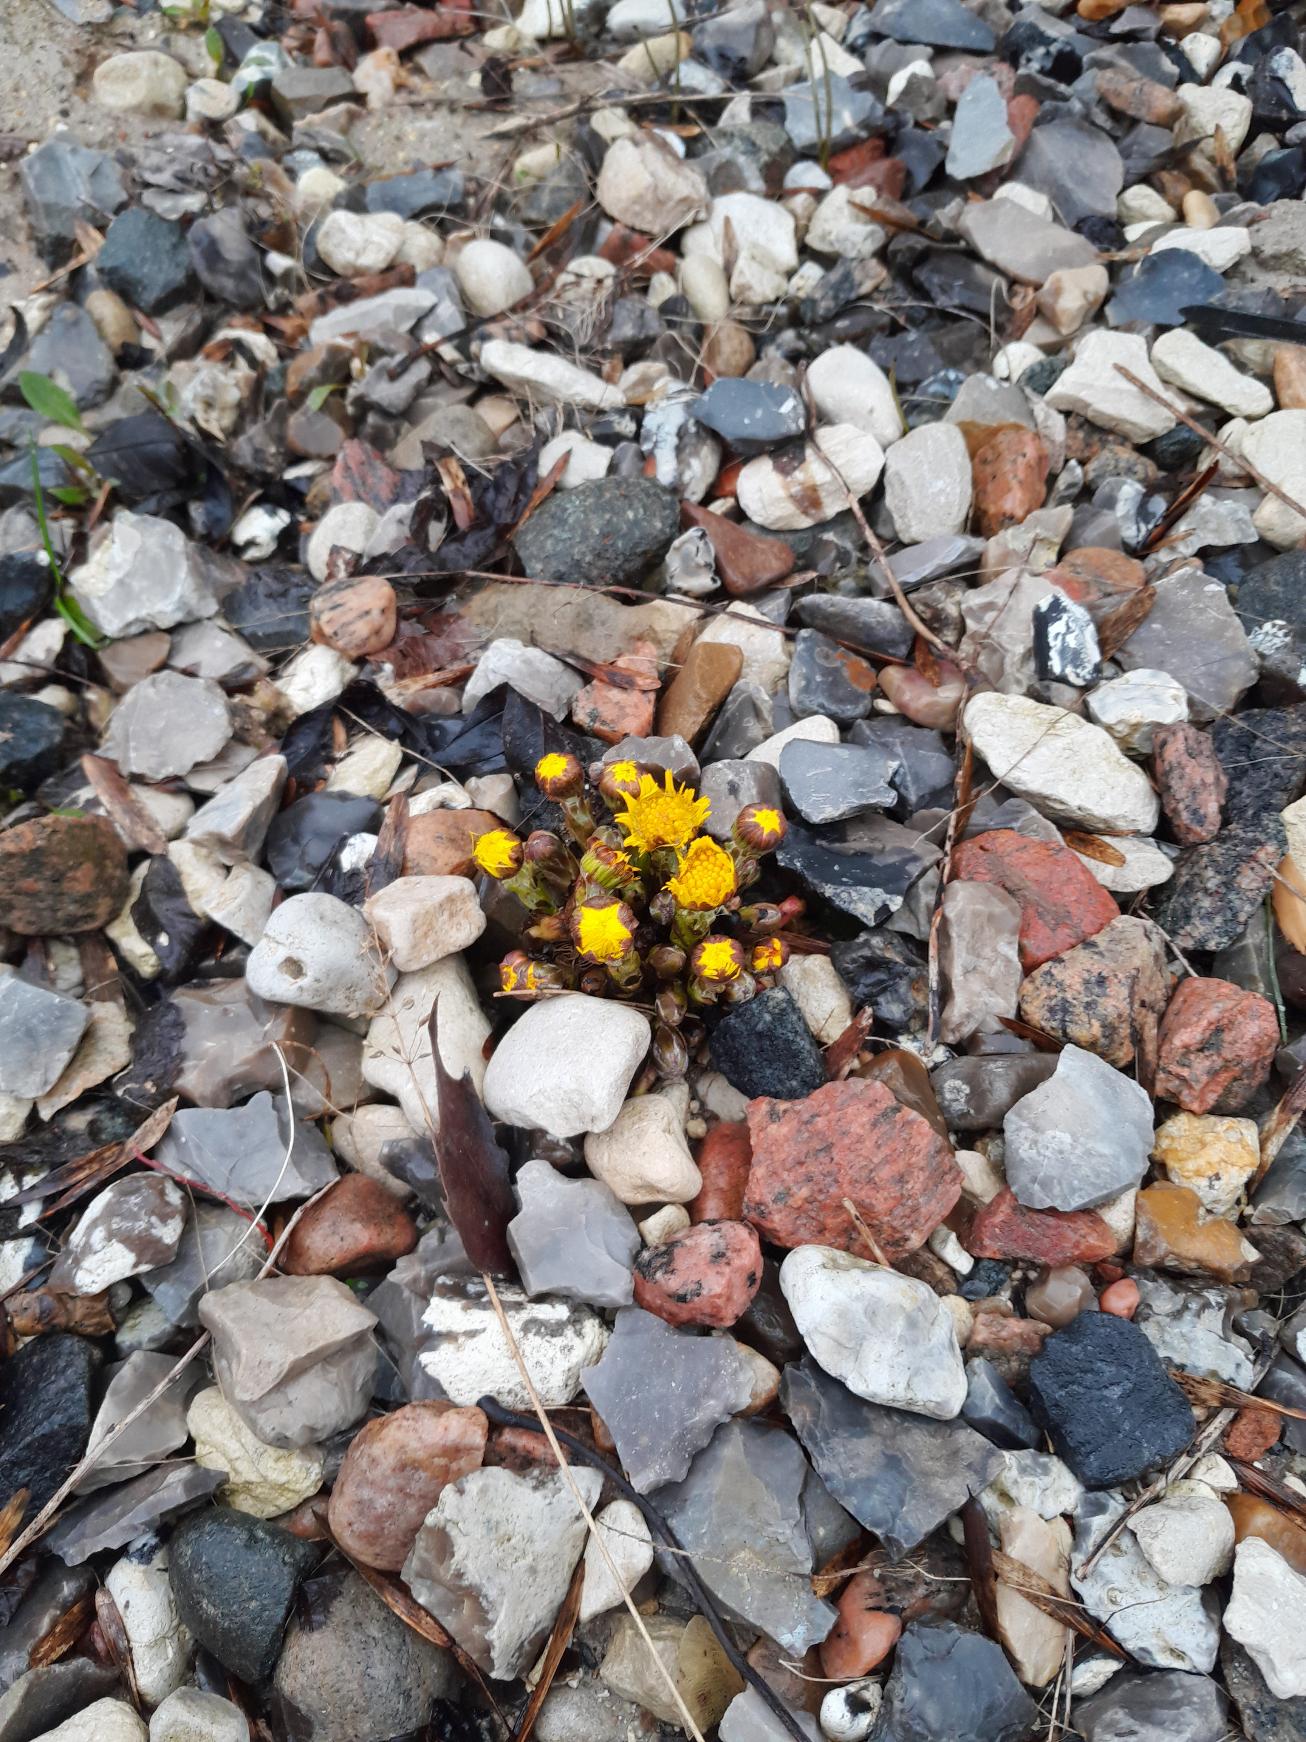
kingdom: Plantae
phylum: Tracheophyta
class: Magnoliopsida
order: Asterales
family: Asteraceae
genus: Tussilago
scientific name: Tussilago farfara
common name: Følfod
